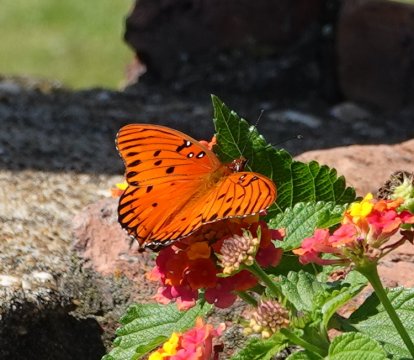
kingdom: Animalia
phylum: Arthropoda
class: Insecta
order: Lepidoptera
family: Nymphalidae
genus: Dione
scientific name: Dione vanillae
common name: Gulf Fritillary
